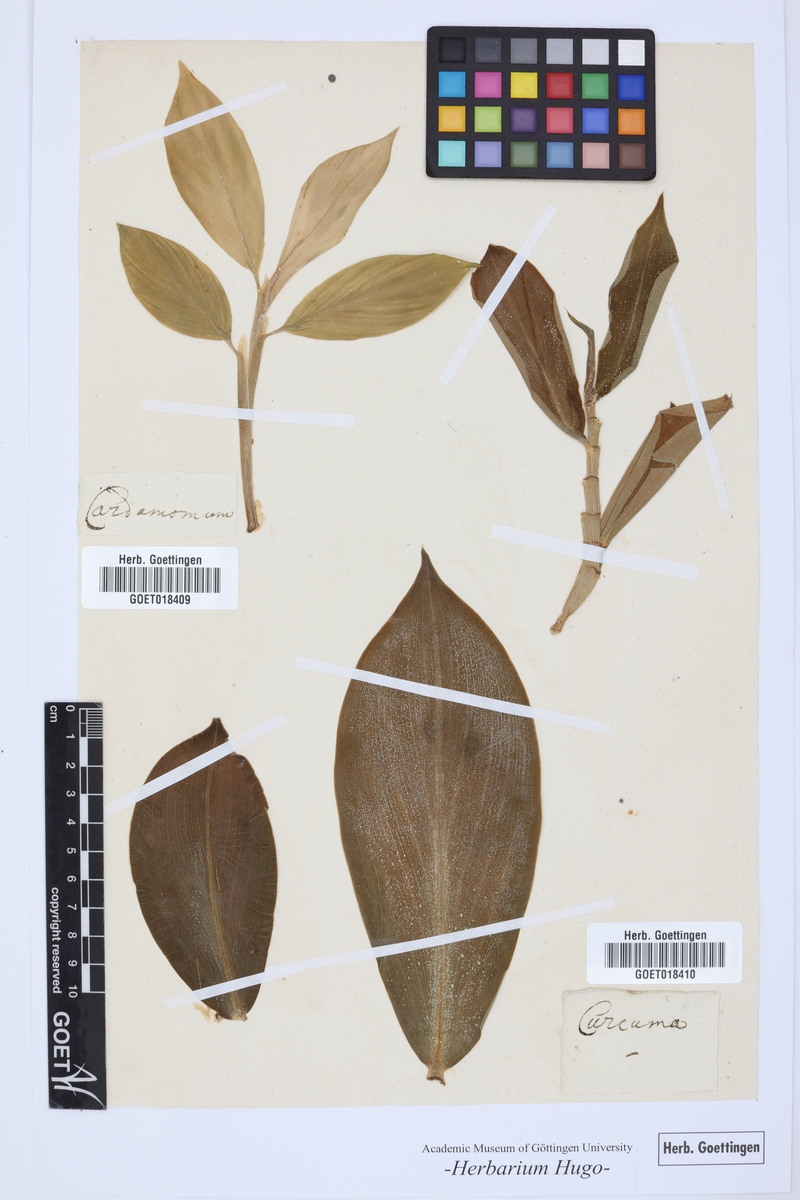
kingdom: Plantae
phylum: Tracheophyta
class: Liliopsida
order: Zingiberales
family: Zingiberaceae
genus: Elettaria
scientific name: Elettaria cardamomum
